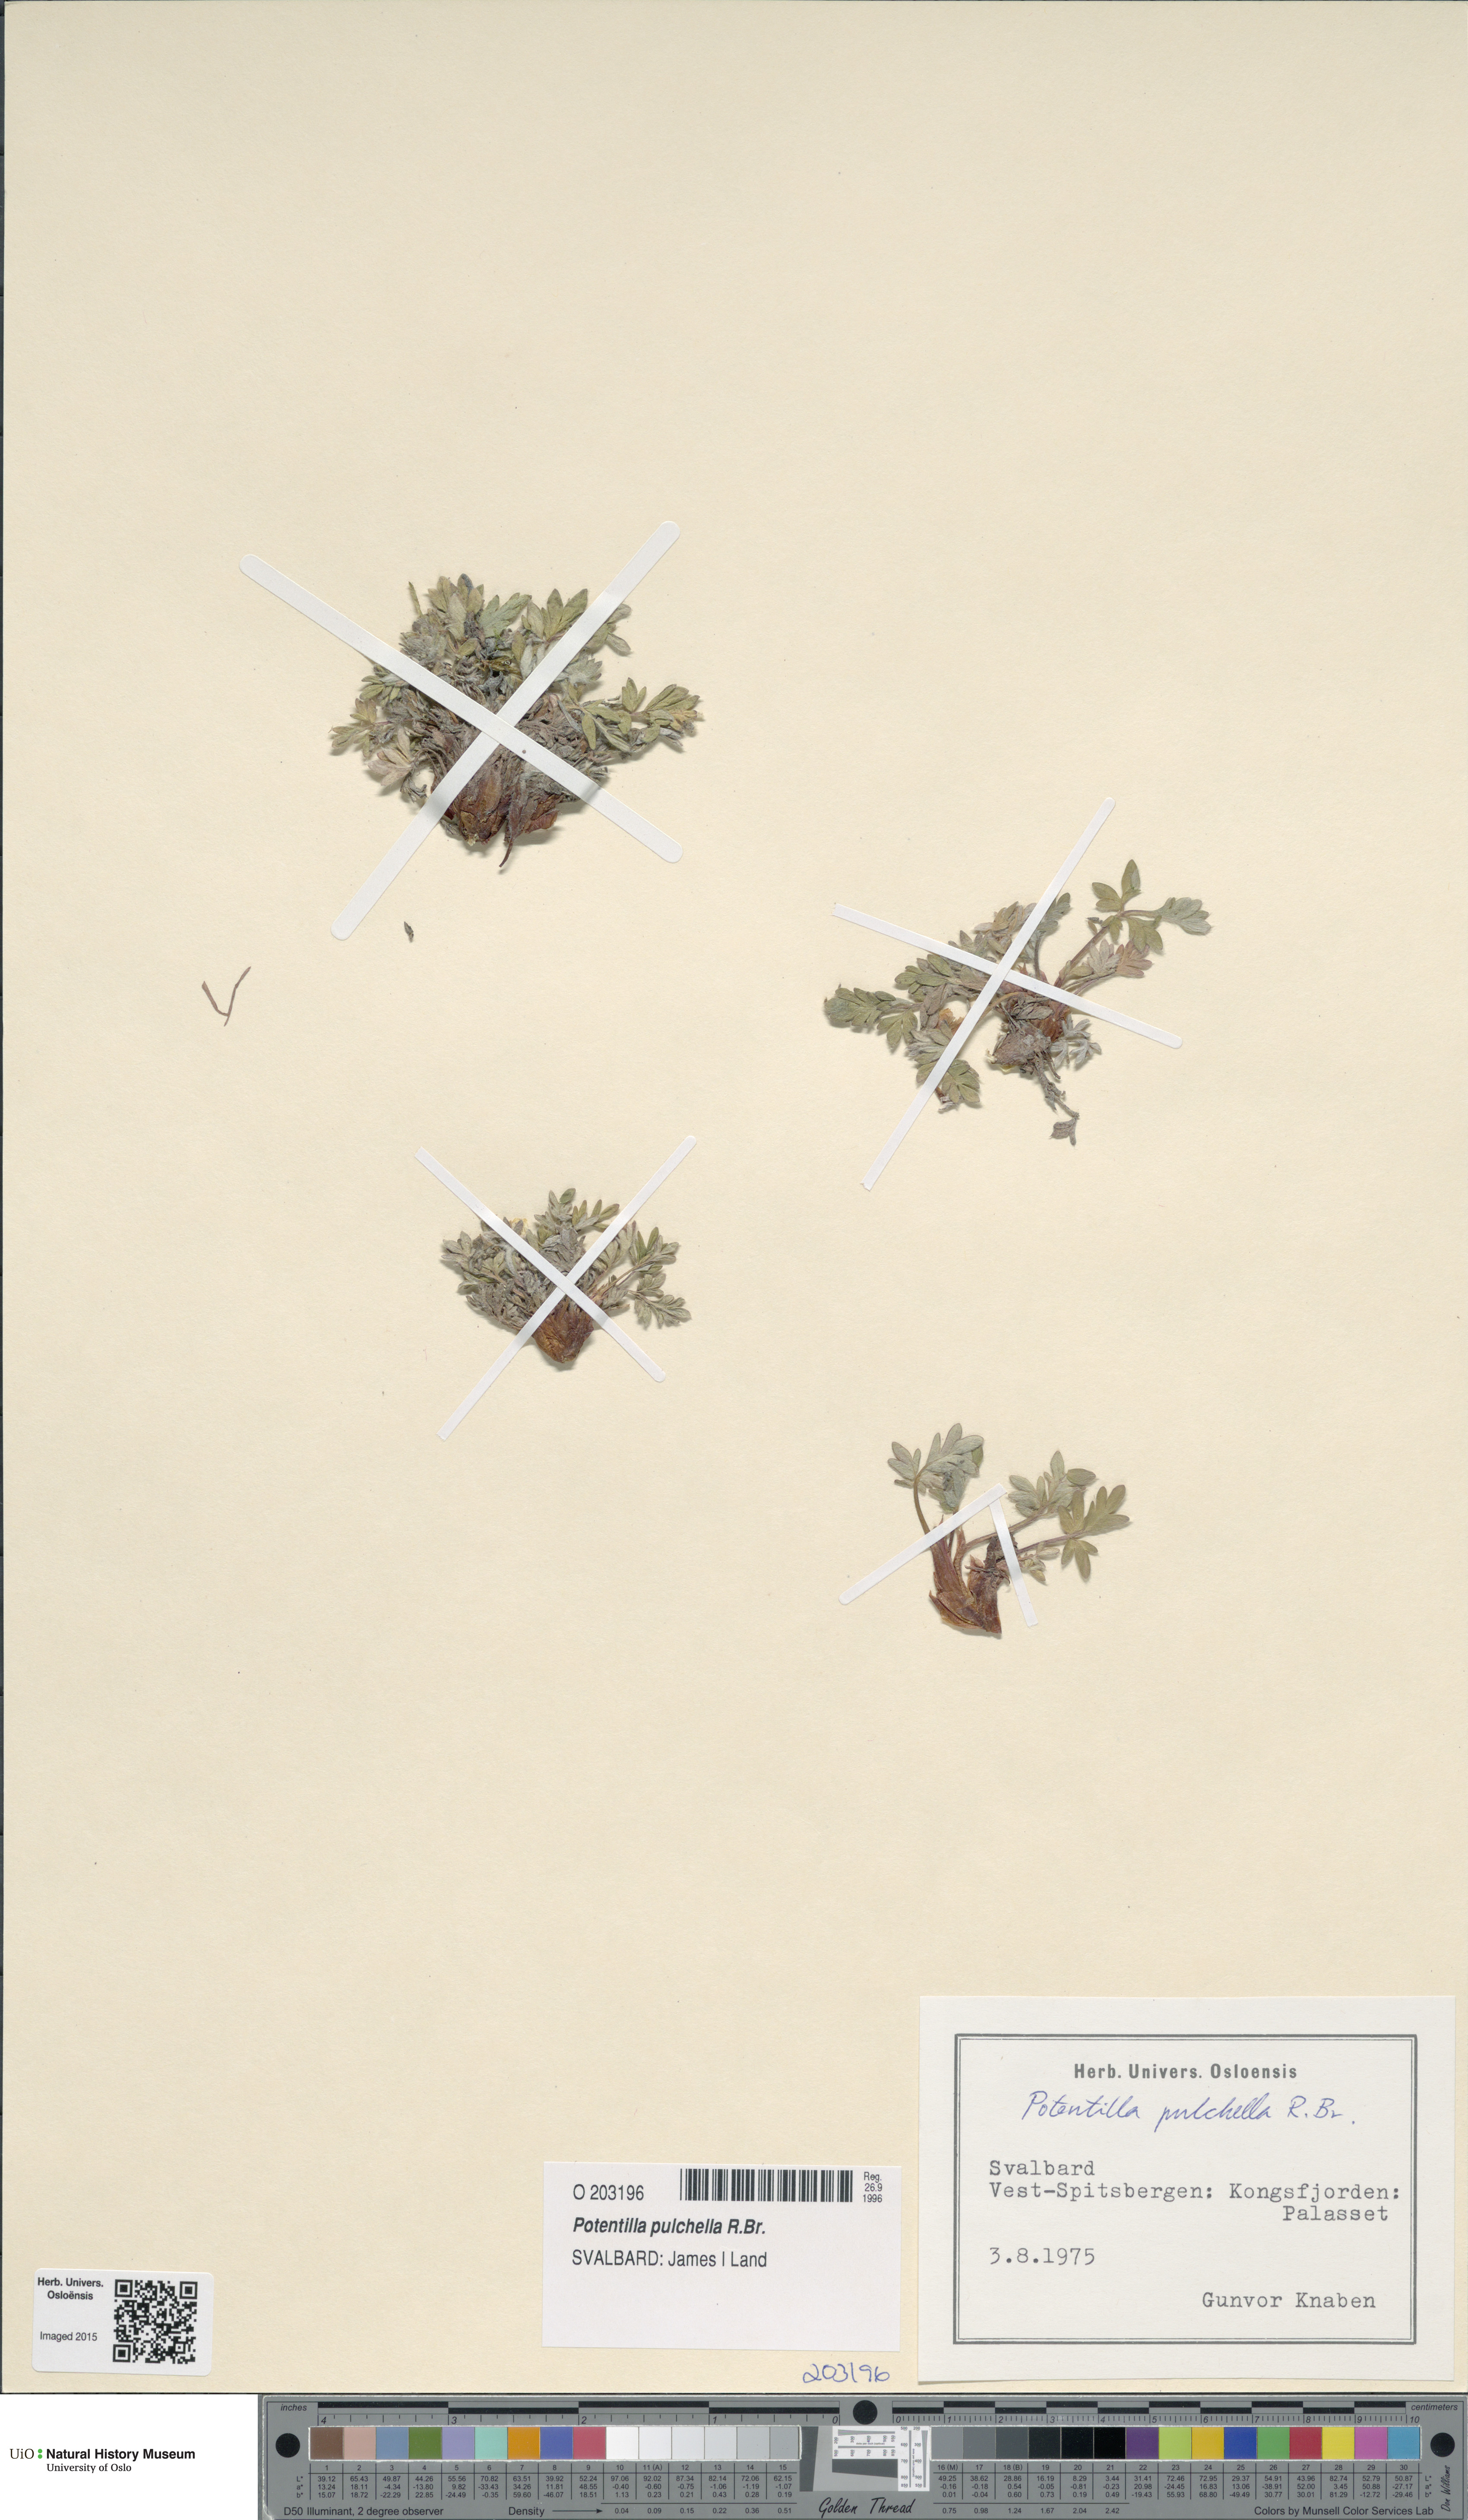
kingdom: Plantae
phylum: Tracheophyta
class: Magnoliopsida
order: Rosales
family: Rosaceae
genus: Potentilla
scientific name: Potentilla pulchella
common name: Pretty cinquefoil
